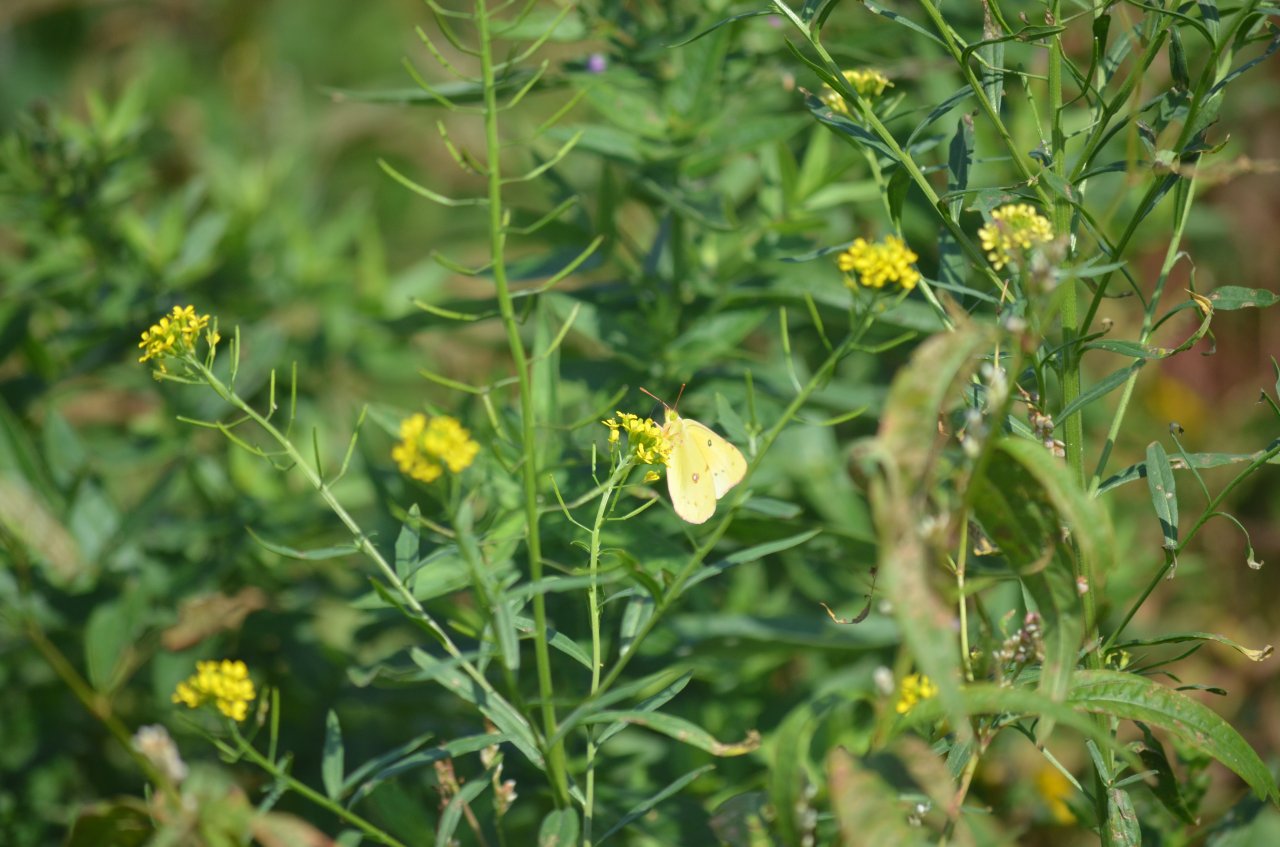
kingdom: Animalia
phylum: Arthropoda
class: Insecta
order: Lepidoptera
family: Pieridae
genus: Colias
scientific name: Colias eurytheme
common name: Orange Sulphur
